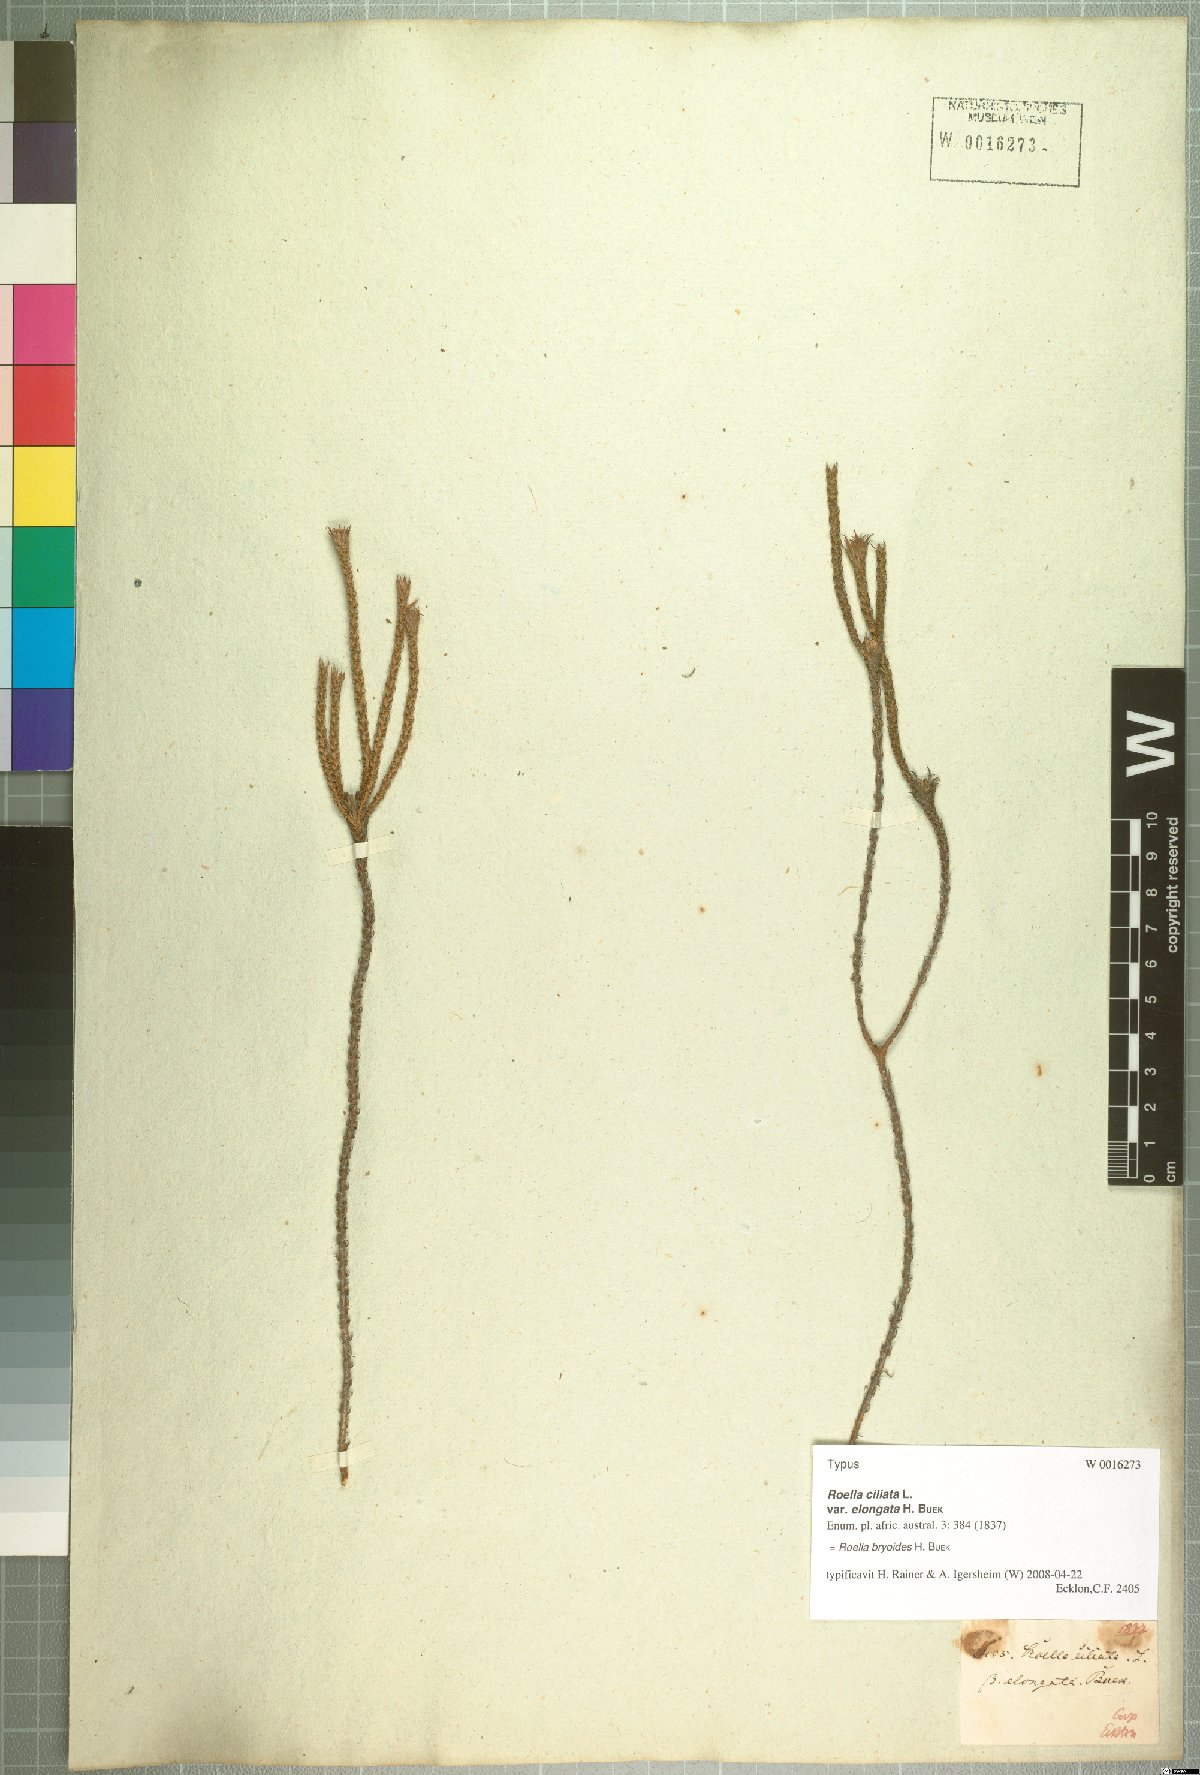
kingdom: Plantae
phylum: Tracheophyta
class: Magnoliopsida
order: Asterales
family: Campanulaceae
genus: Roella
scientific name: Roella bryoides
